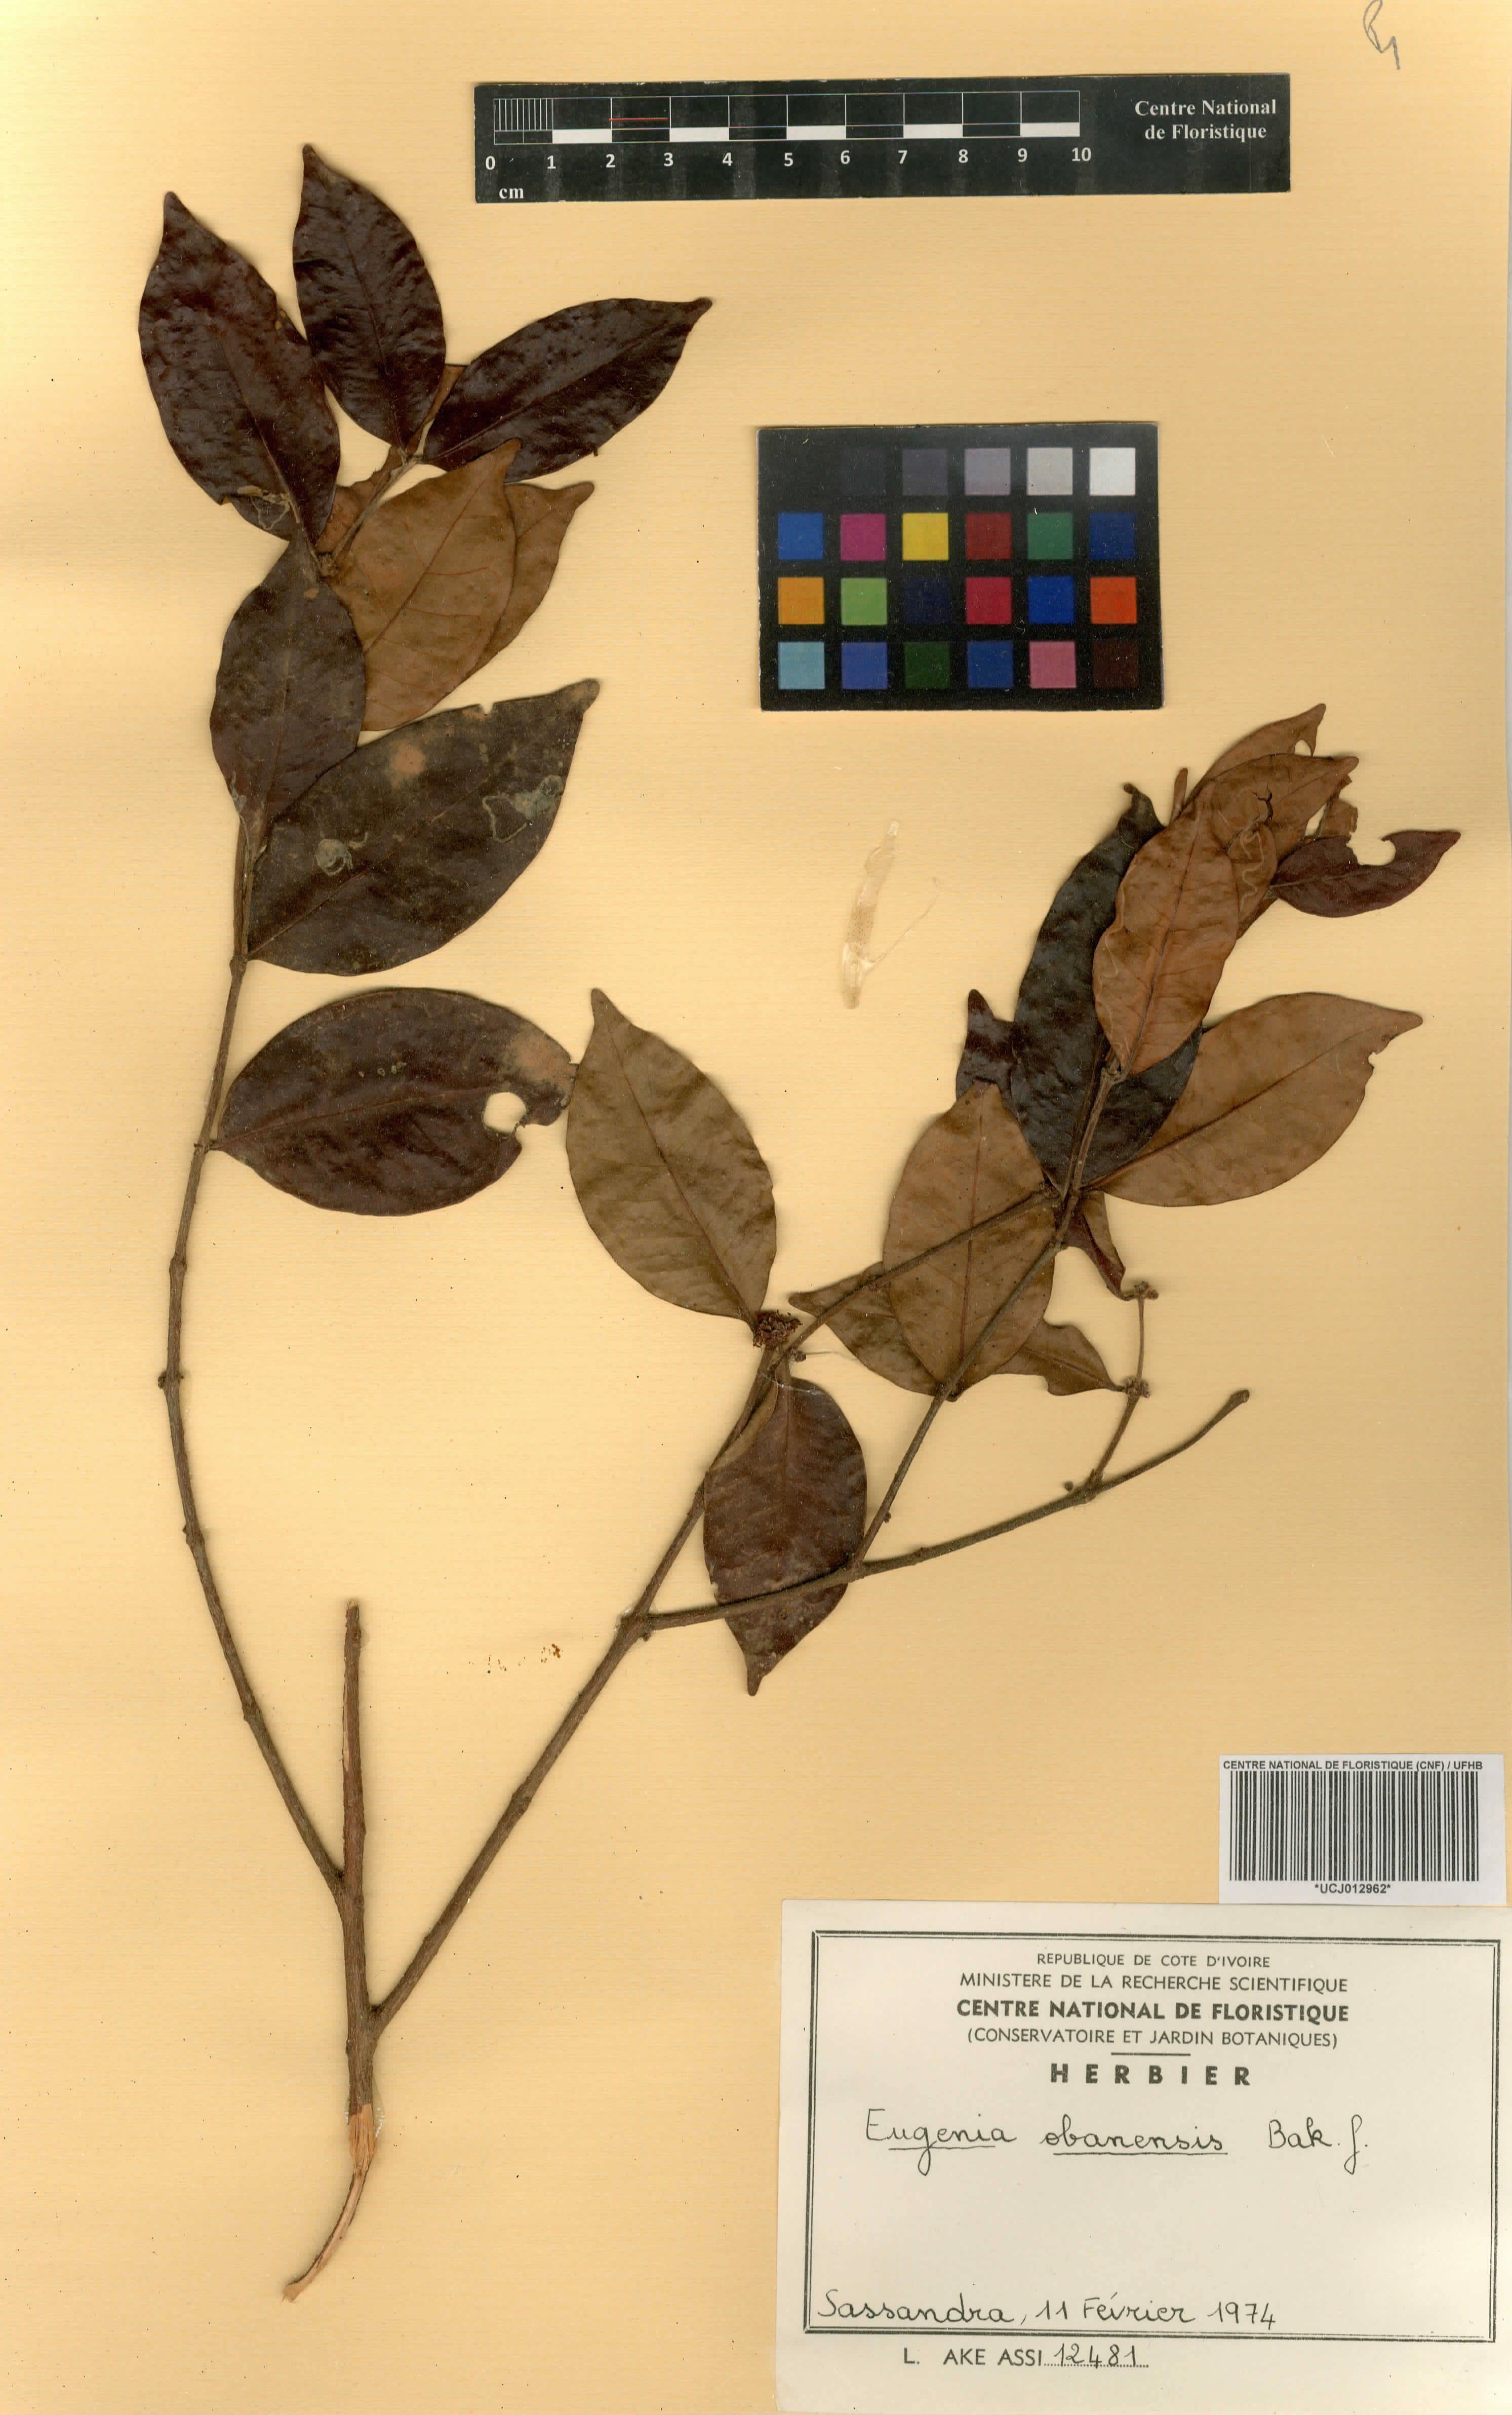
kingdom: Plantae
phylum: Tracheophyta
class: Magnoliopsida
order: Myrtales
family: Myrtaceae
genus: Eugenia
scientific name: Eugenia obanensis
